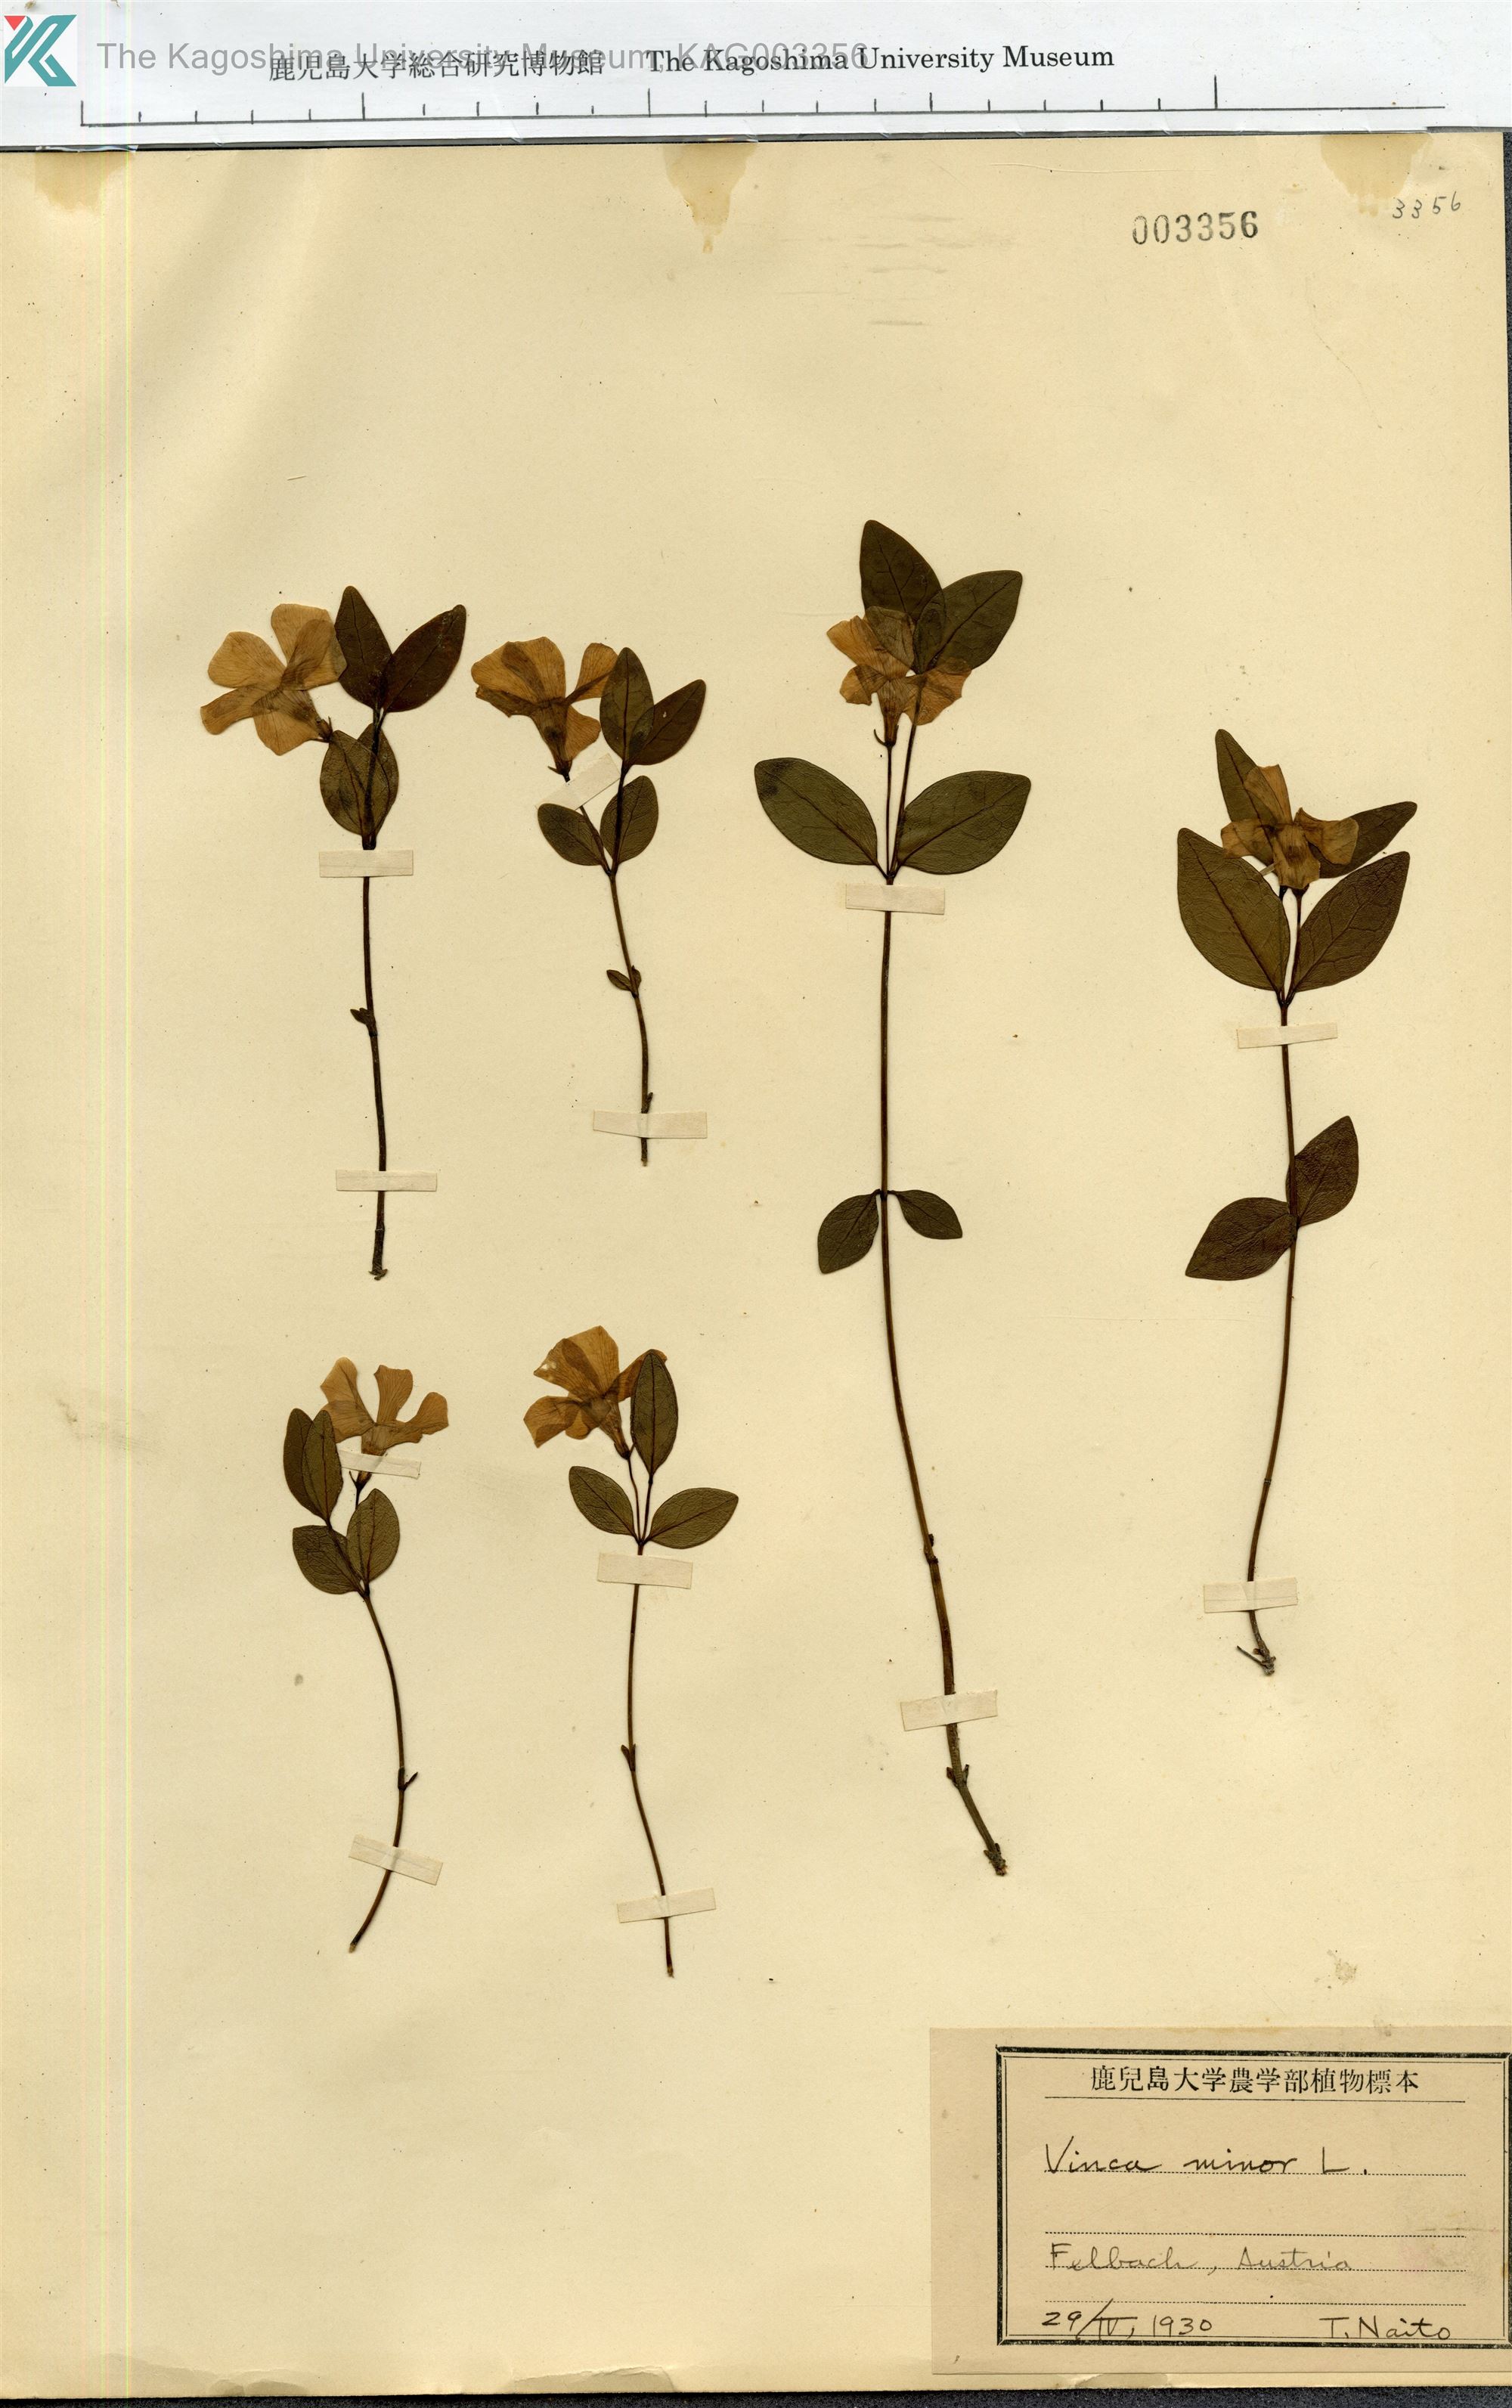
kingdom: Plantae
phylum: Tracheophyta
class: Magnoliopsida
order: Gentianales
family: Apocynaceae
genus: Vinca
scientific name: Vinca minor
